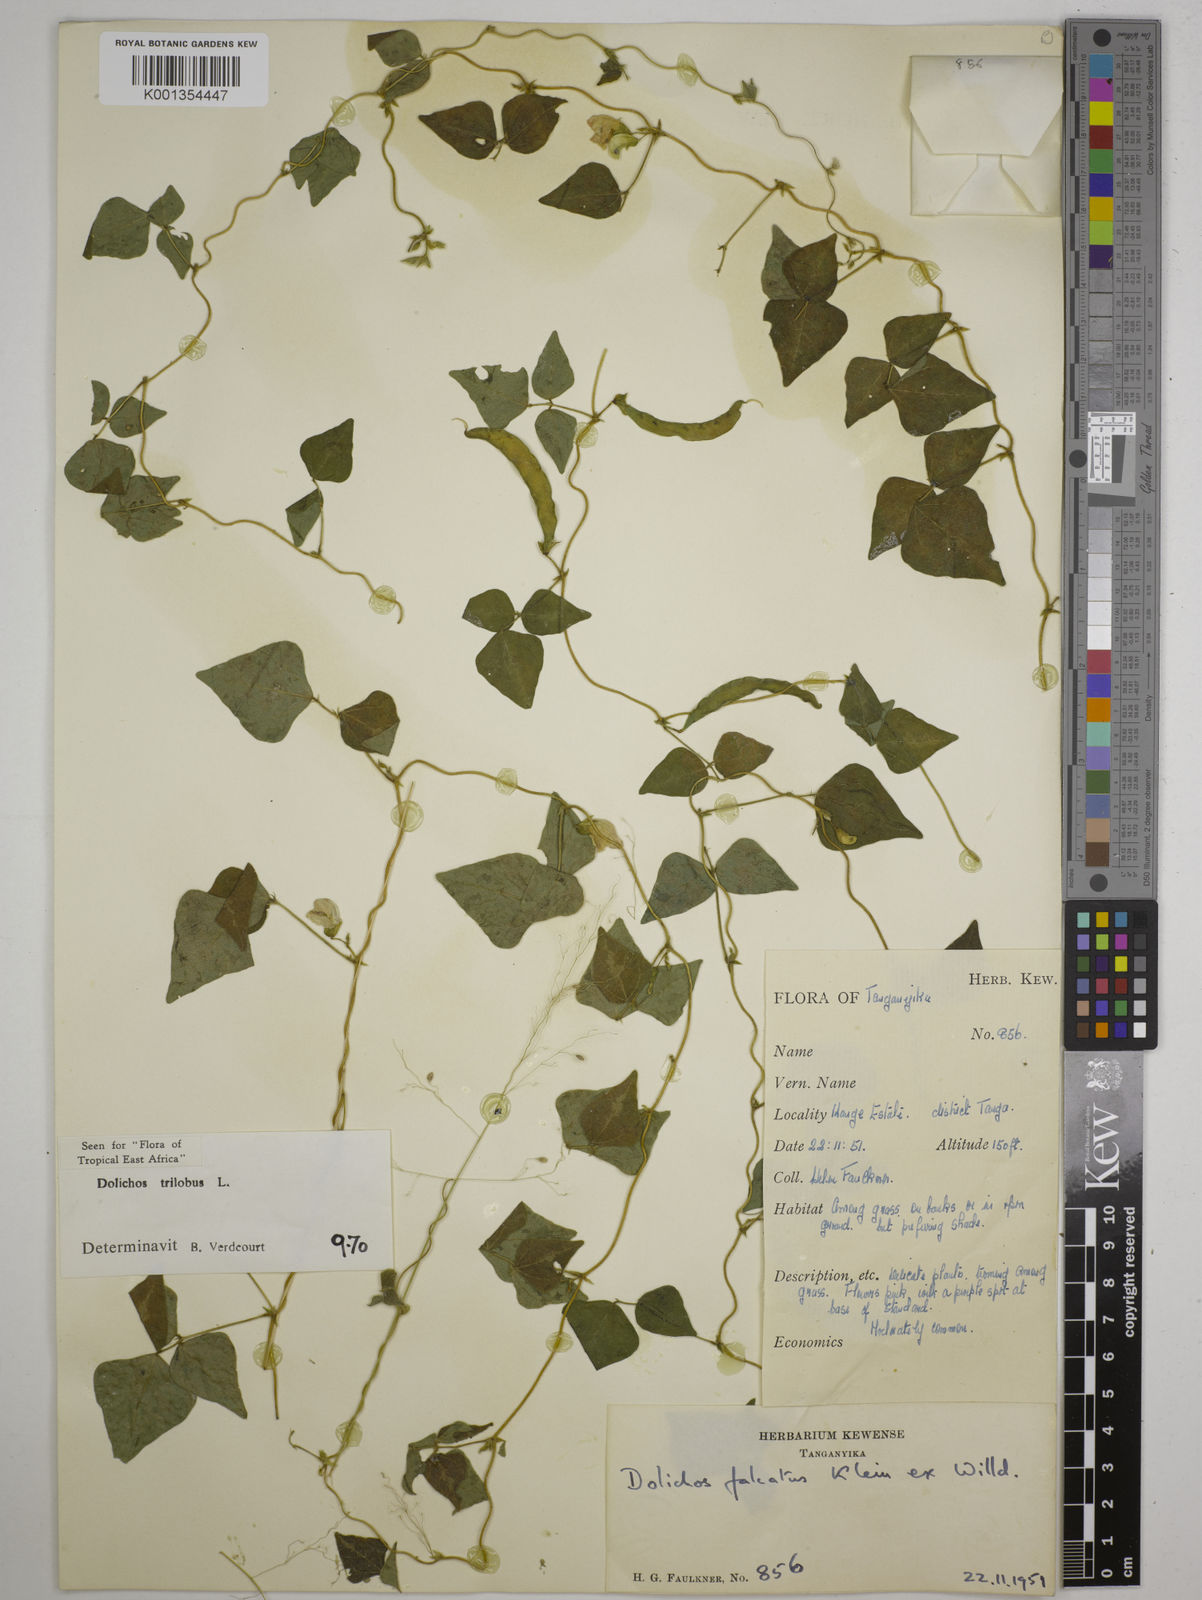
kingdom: Plantae
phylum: Tracheophyta
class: Magnoliopsida
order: Fabales
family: Fabaceae
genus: Dolichos
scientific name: Dolichos
